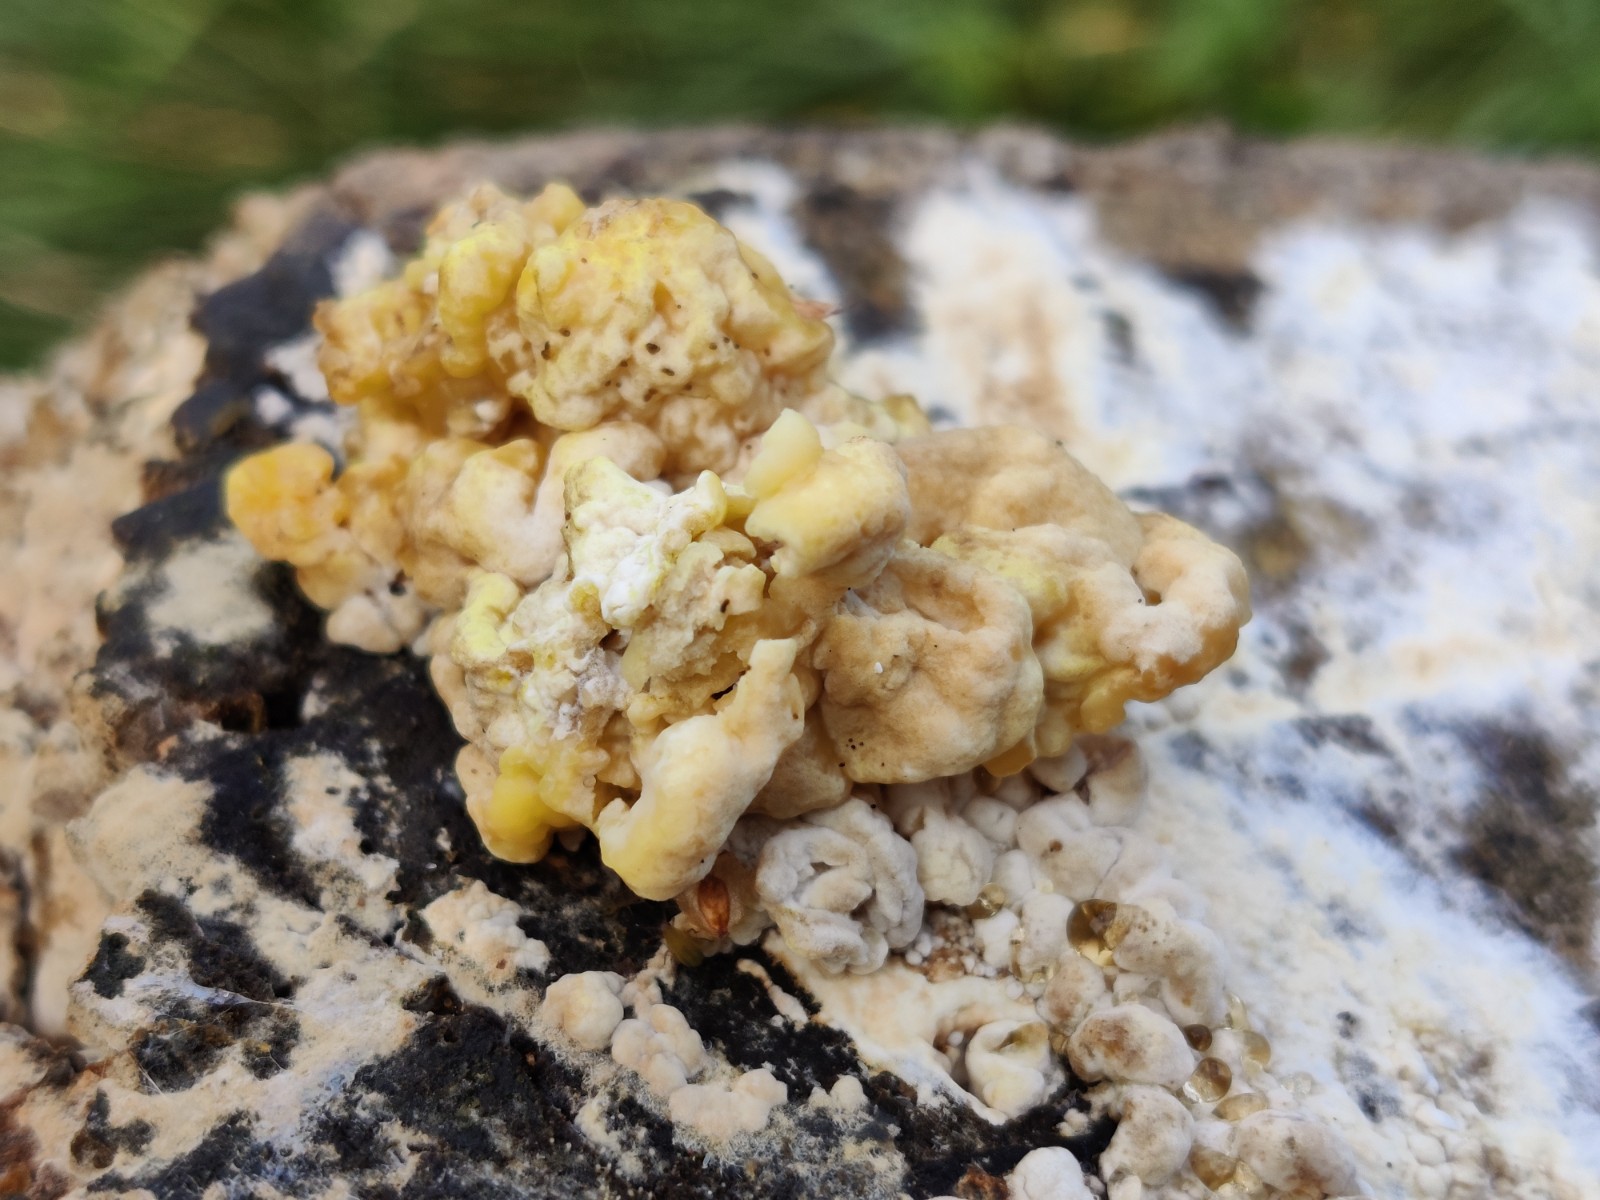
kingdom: Fungi
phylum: Ascomycota
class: Sordariomycetes
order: Xylariales
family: Hypoxylaceae
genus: Nodulisporium
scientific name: Nodulisporium cecidiogenes
